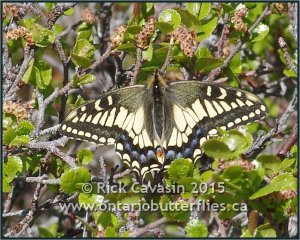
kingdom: Animalia
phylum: Arthropoda
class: Insecta
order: Lepidoptera
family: Papilionidae
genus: Papilio
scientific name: Papilio machaon
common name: Old World Swallowtail
